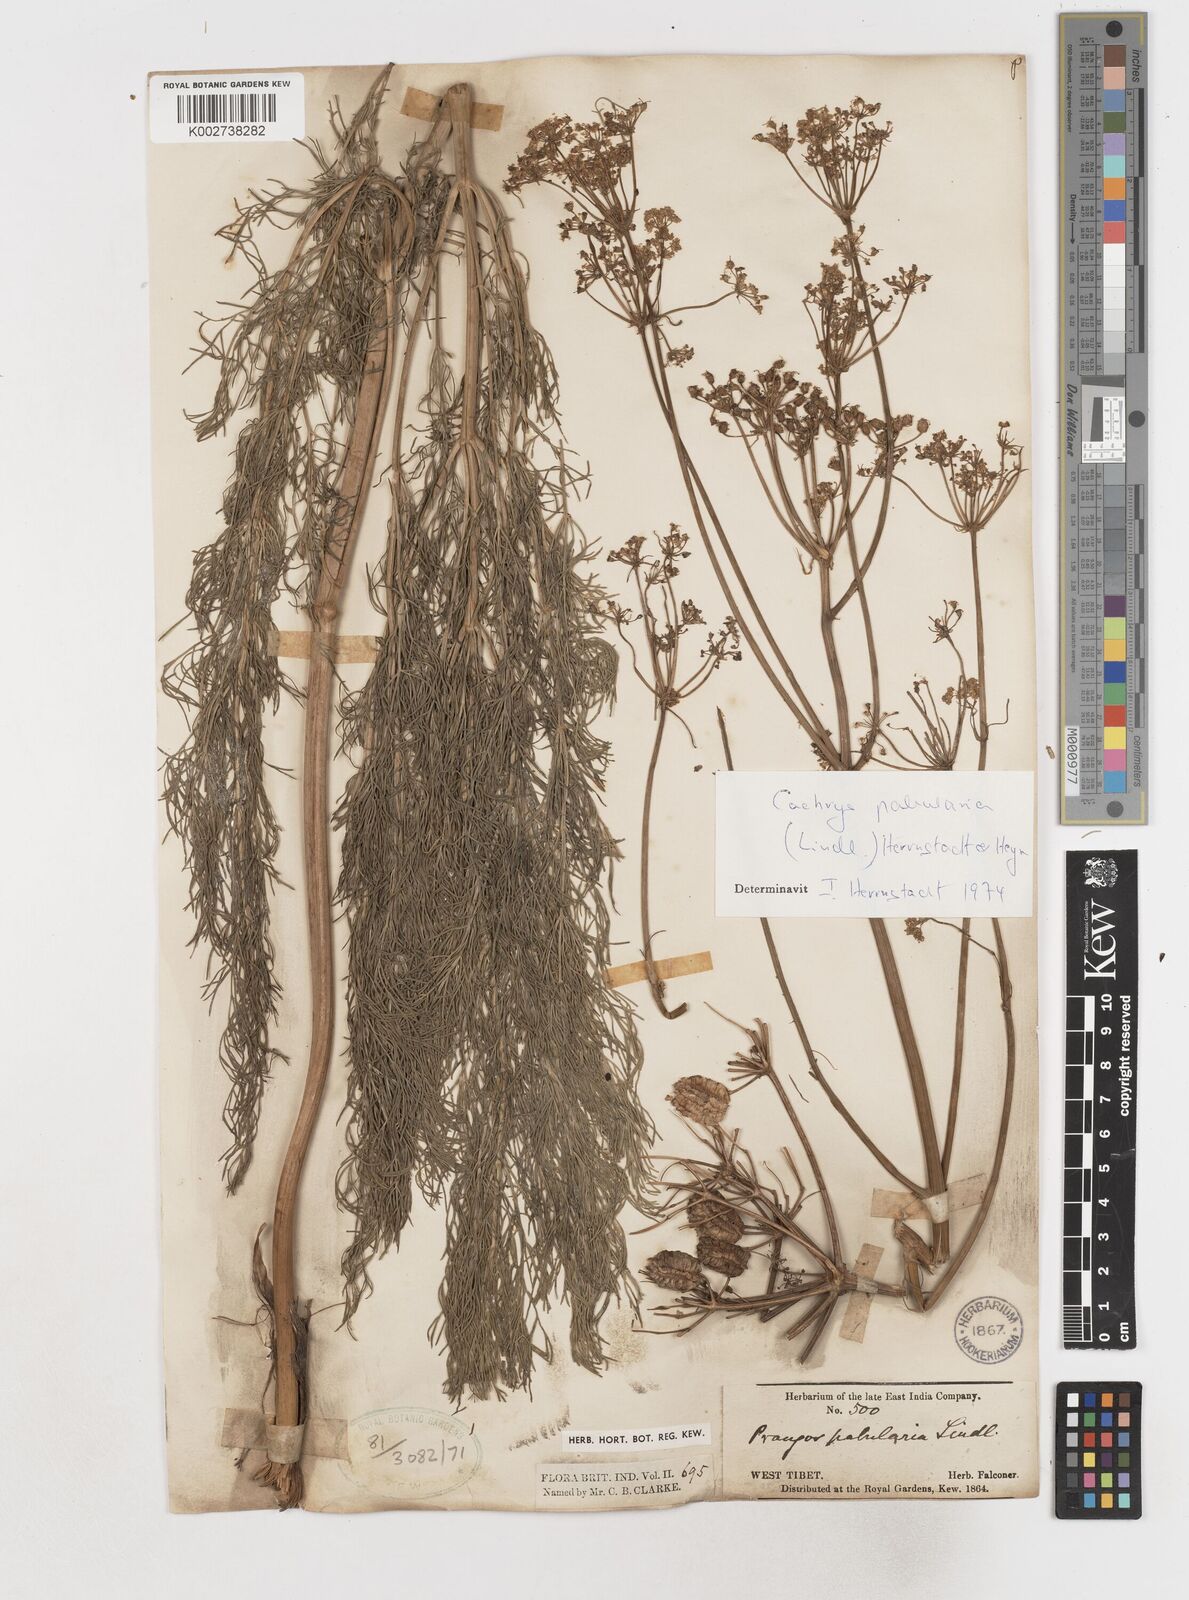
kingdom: Plantae
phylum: Tracheophyta
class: Magnoliopsida
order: Apiales
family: Apiaceae
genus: Prangos
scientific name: Prangos pabularia
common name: Yugan
